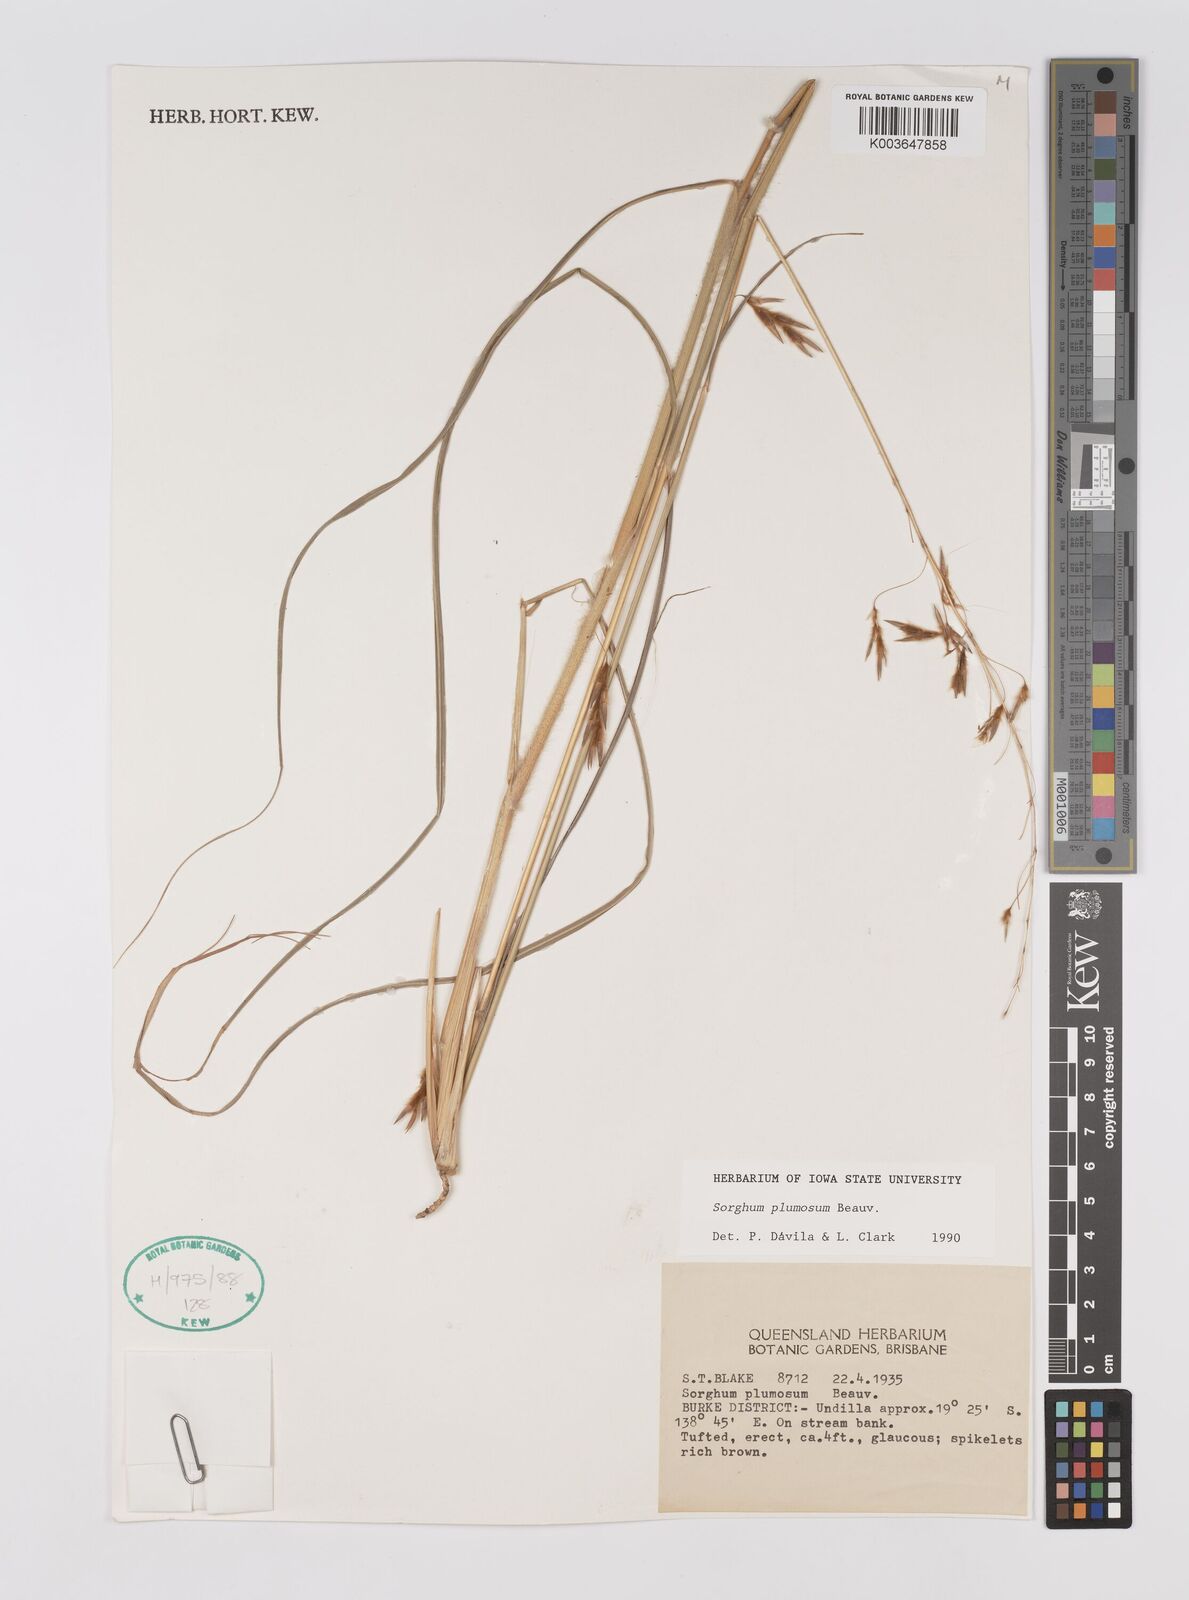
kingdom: Plantae
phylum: Tracheophyta
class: Liliopsida
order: Poales
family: Poaceae
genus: Sarga
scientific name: Sarga plumosa
